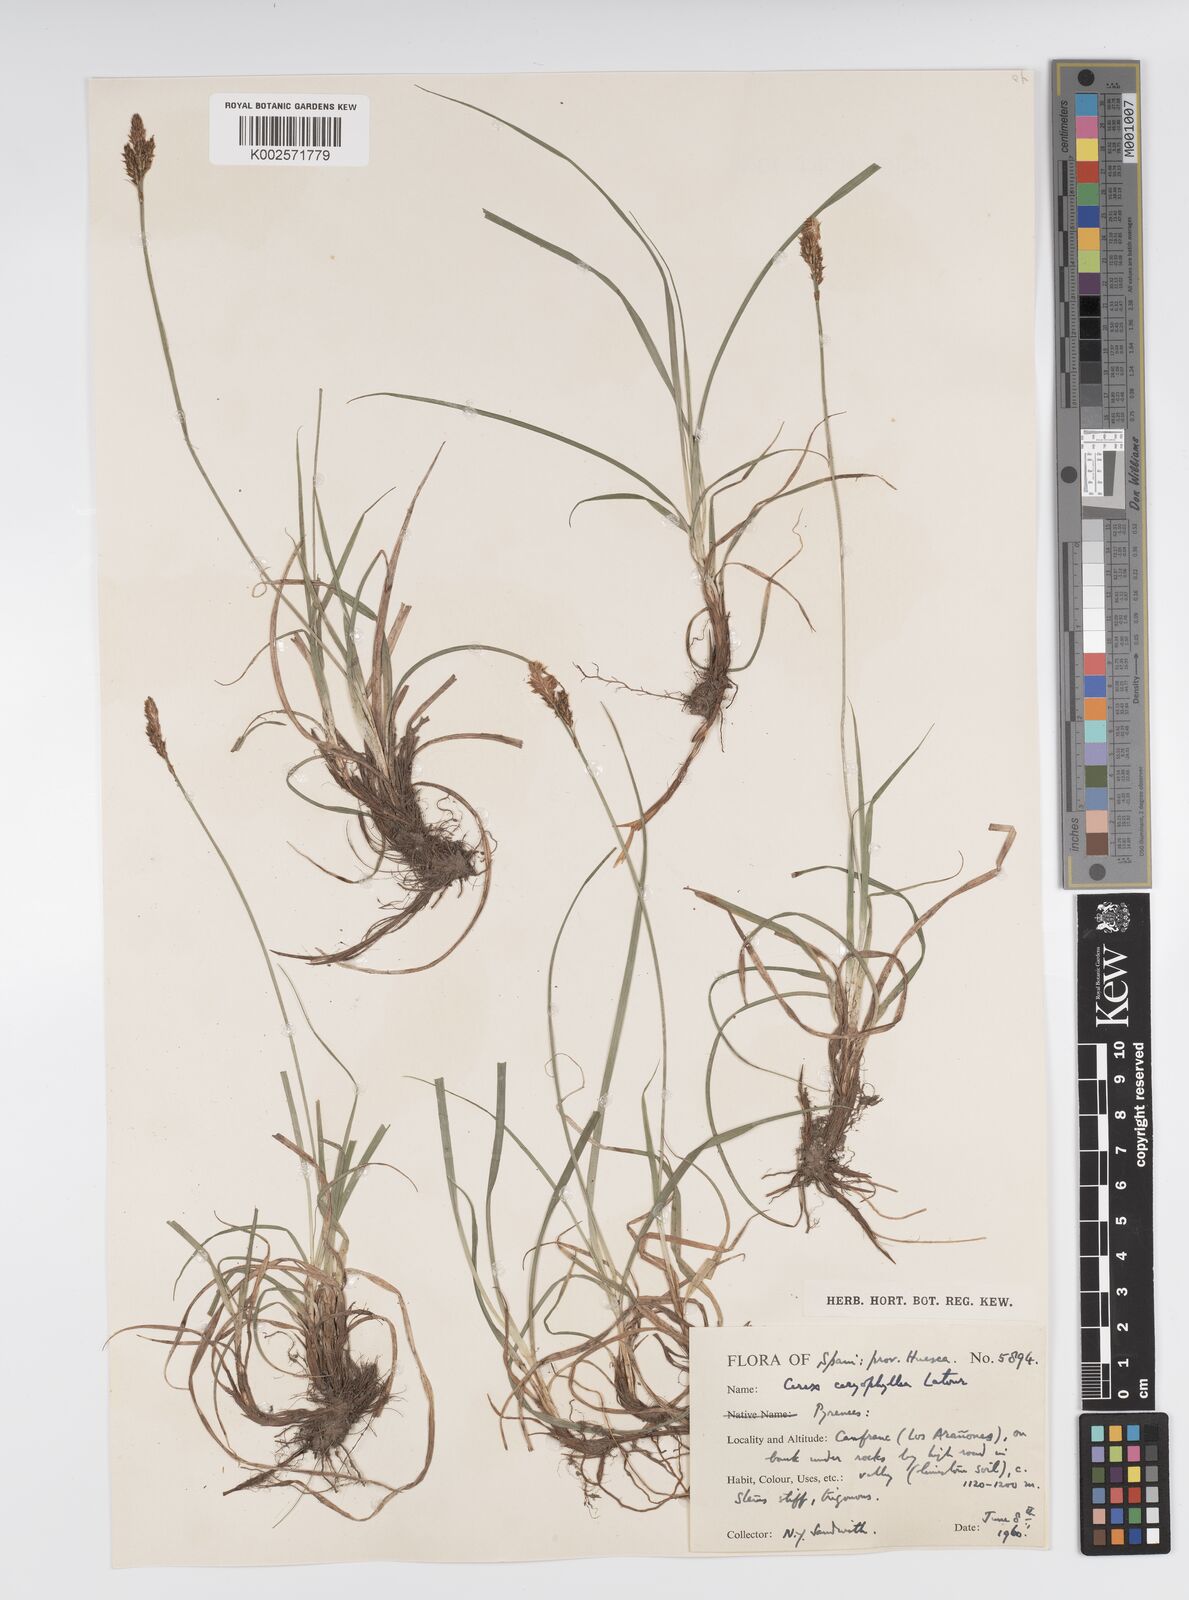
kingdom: Plantae
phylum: Tracheophyta
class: Liliopsida
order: Poales
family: Cyperaceae
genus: Carex
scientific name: Carex caryophyllea
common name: Spring sedge
